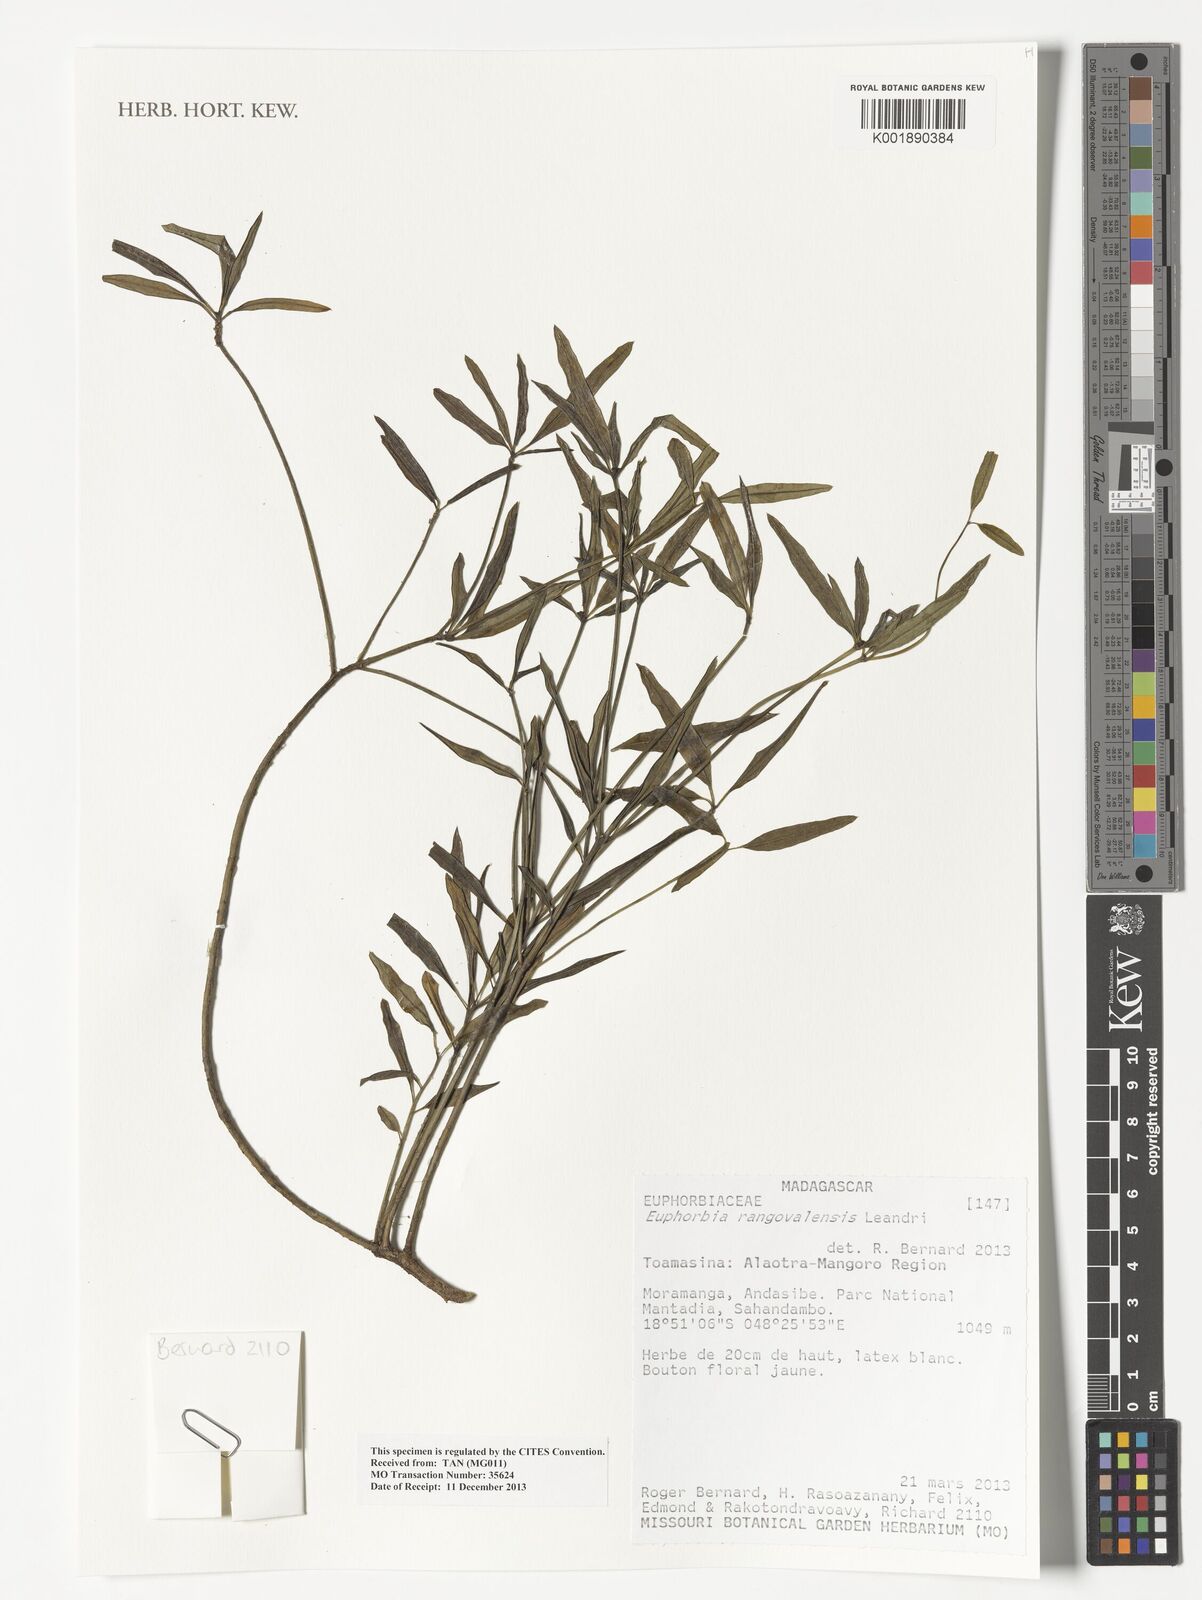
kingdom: Plantae
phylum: Tracheophyta
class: Magnoliopsida
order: Malpighiales
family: Euphorbiaceae
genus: Euphorbia
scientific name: Euphorbia rangovalensis
